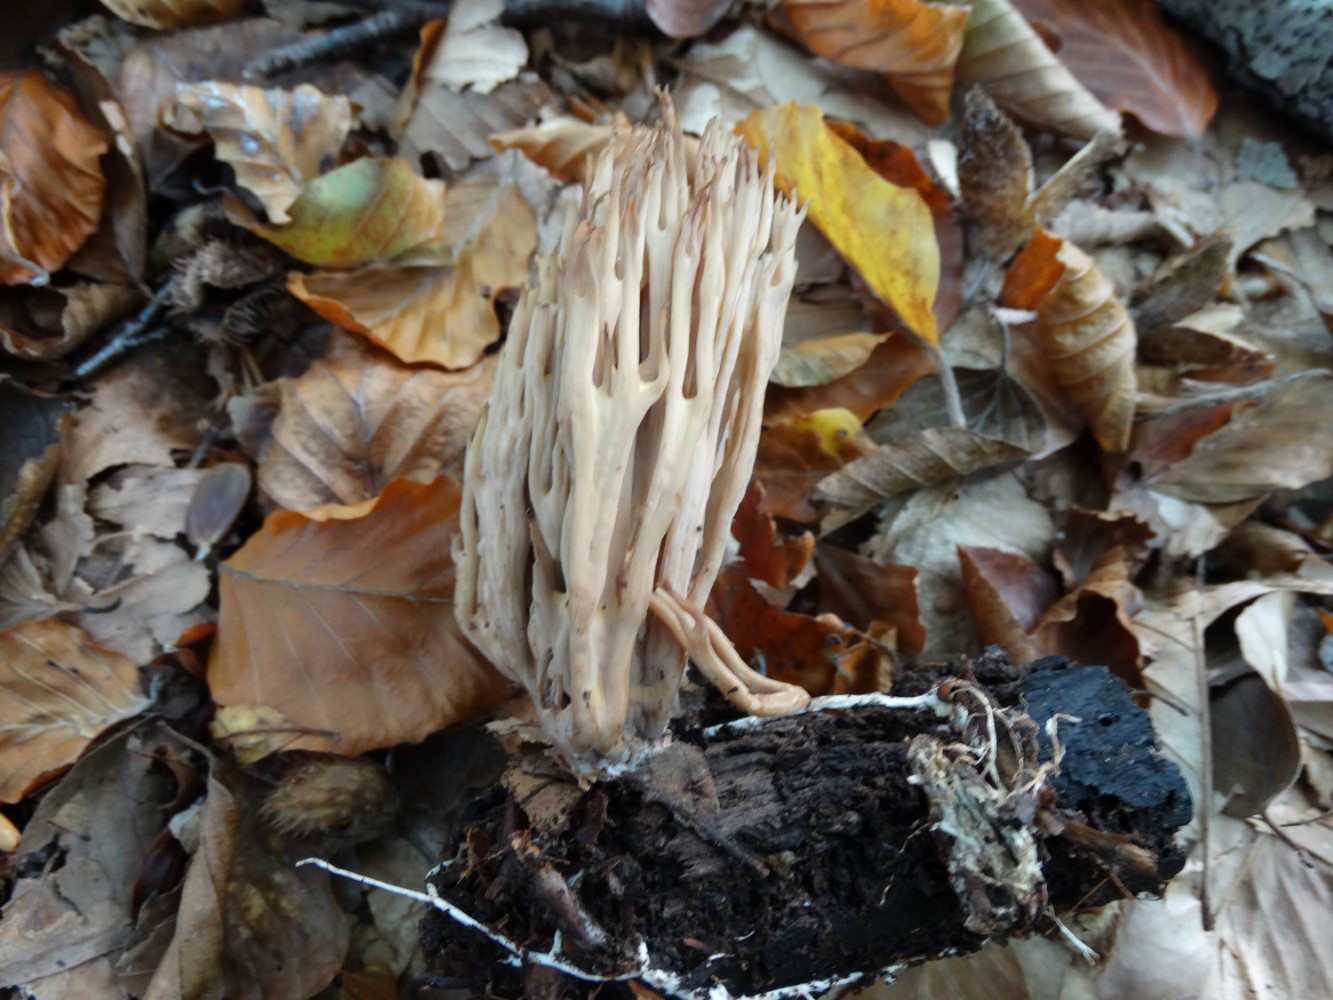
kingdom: Fungi
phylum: Basidiomycota
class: Agaricomycetes
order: Gomphales
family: Gomphaceae
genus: Ramaria
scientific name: Ramaria stricta
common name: rank koralsvamp
